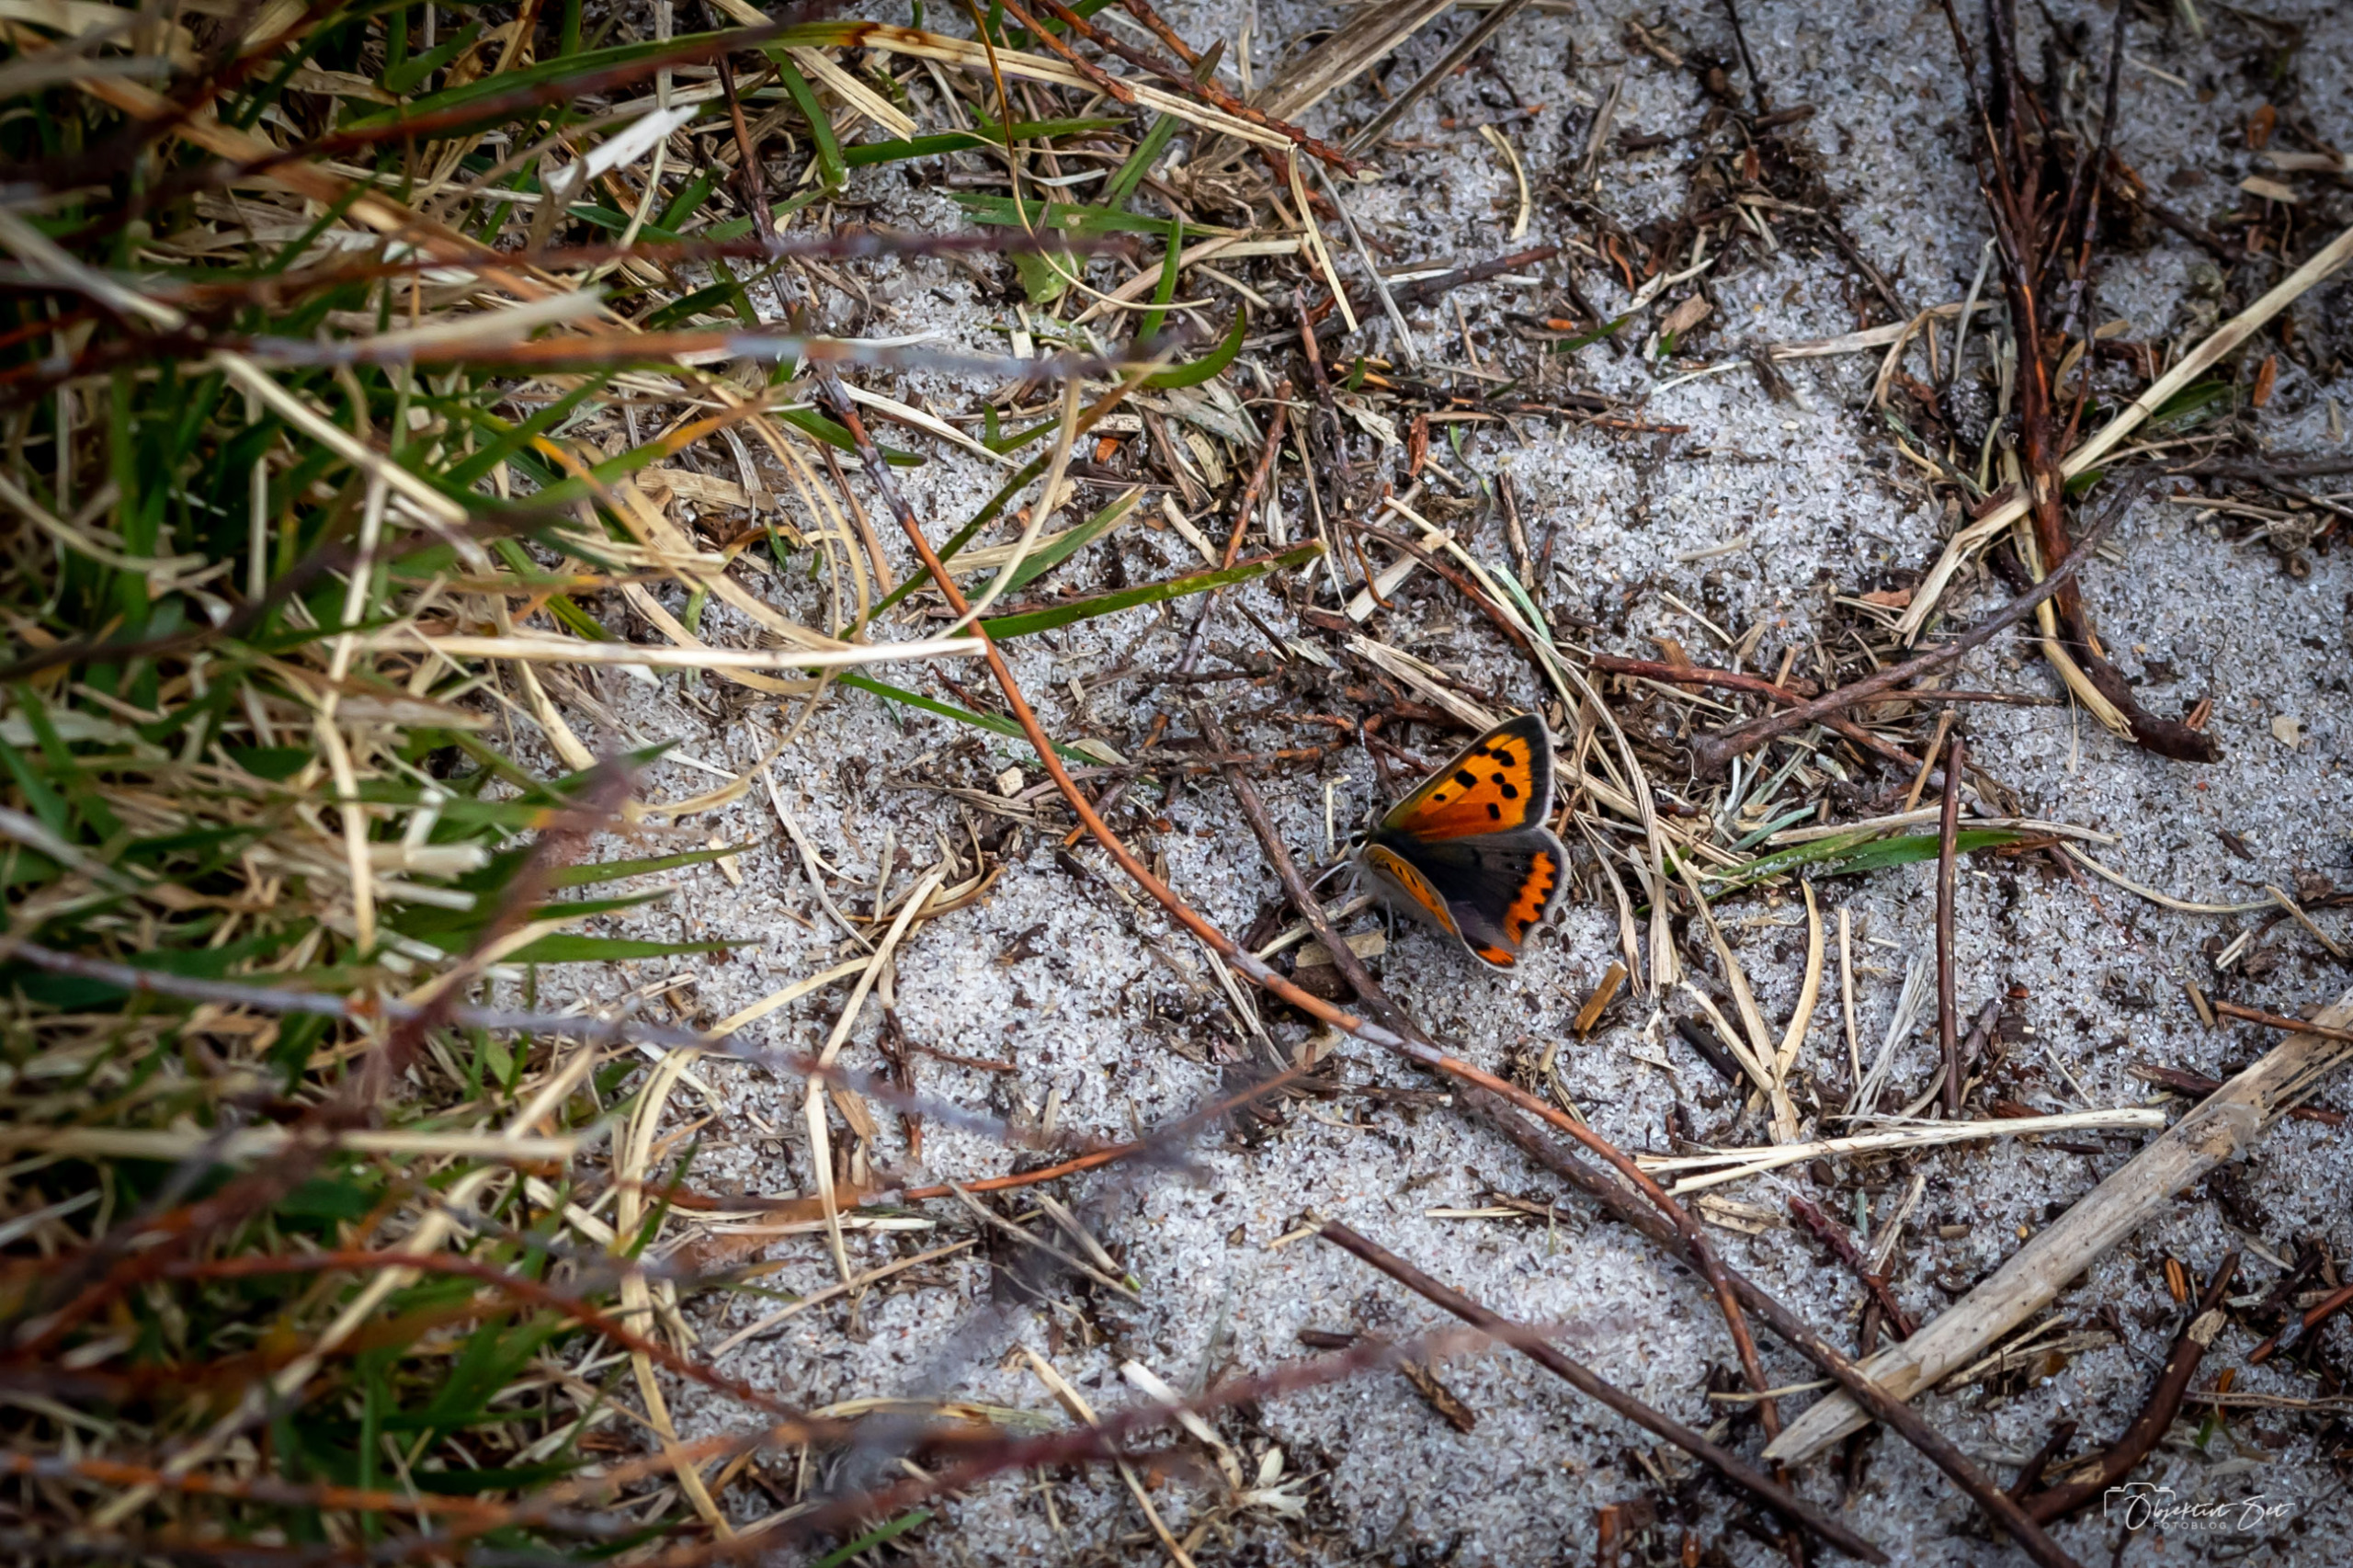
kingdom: Animalia
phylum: Arthropoda
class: Insecta
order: Lepidoptera
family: Lycaenidae
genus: Lycaena
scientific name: Lycaena phlaeas
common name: Lille ildfugl
